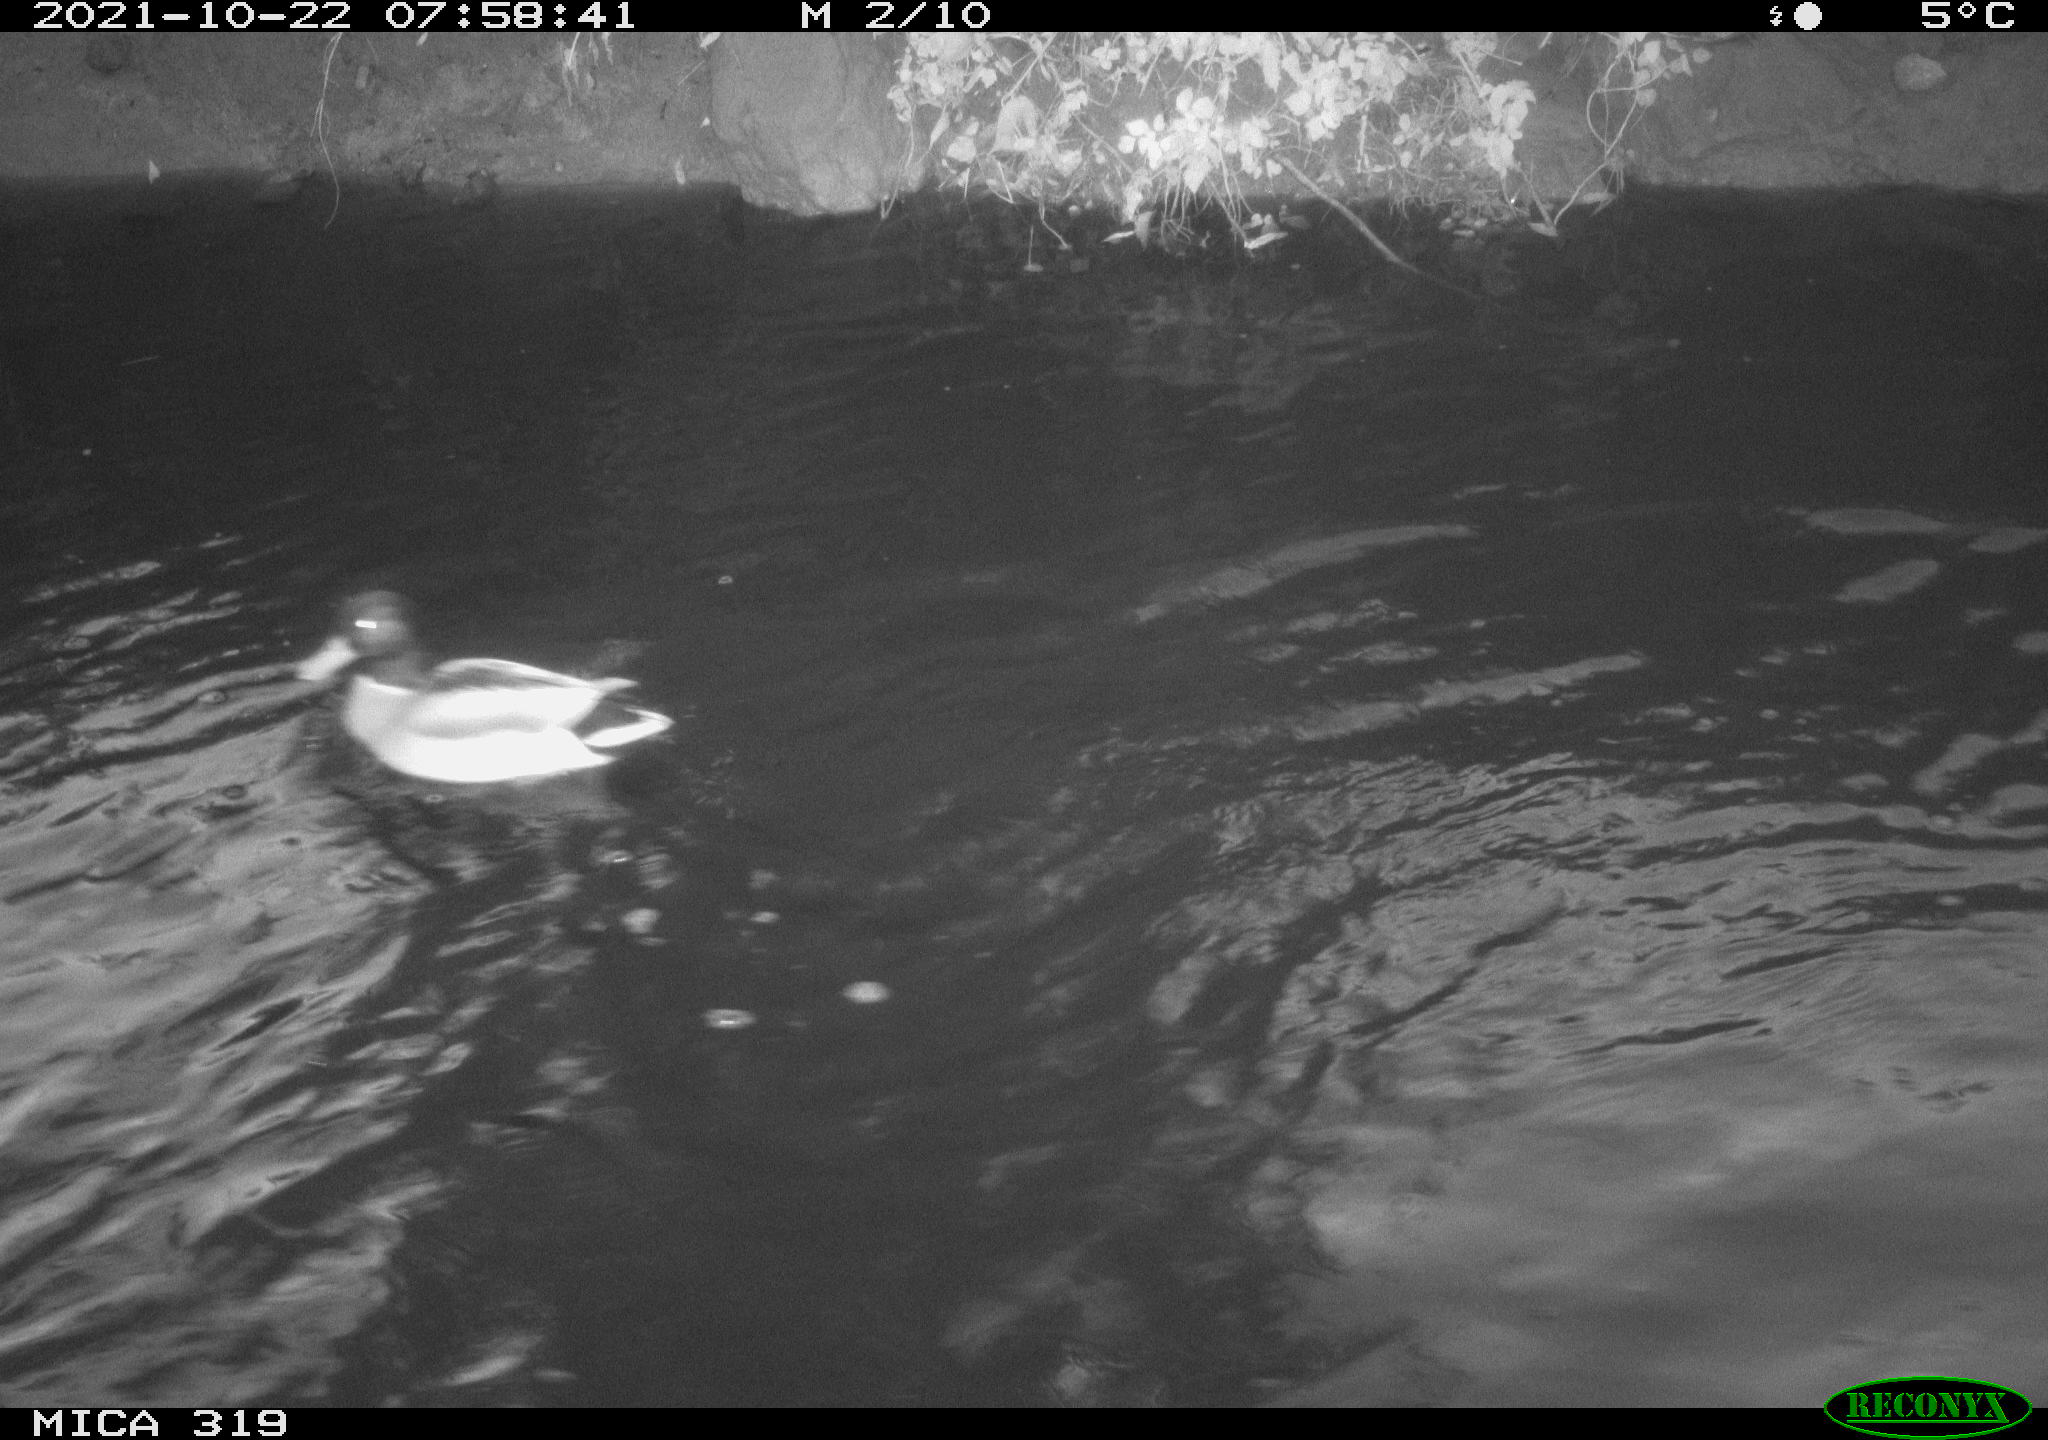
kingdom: Animalia
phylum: Chordata
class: Aves
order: Anseriformes
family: Anatidae
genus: Anas
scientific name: Anas platyrhynchos
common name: Mallard
